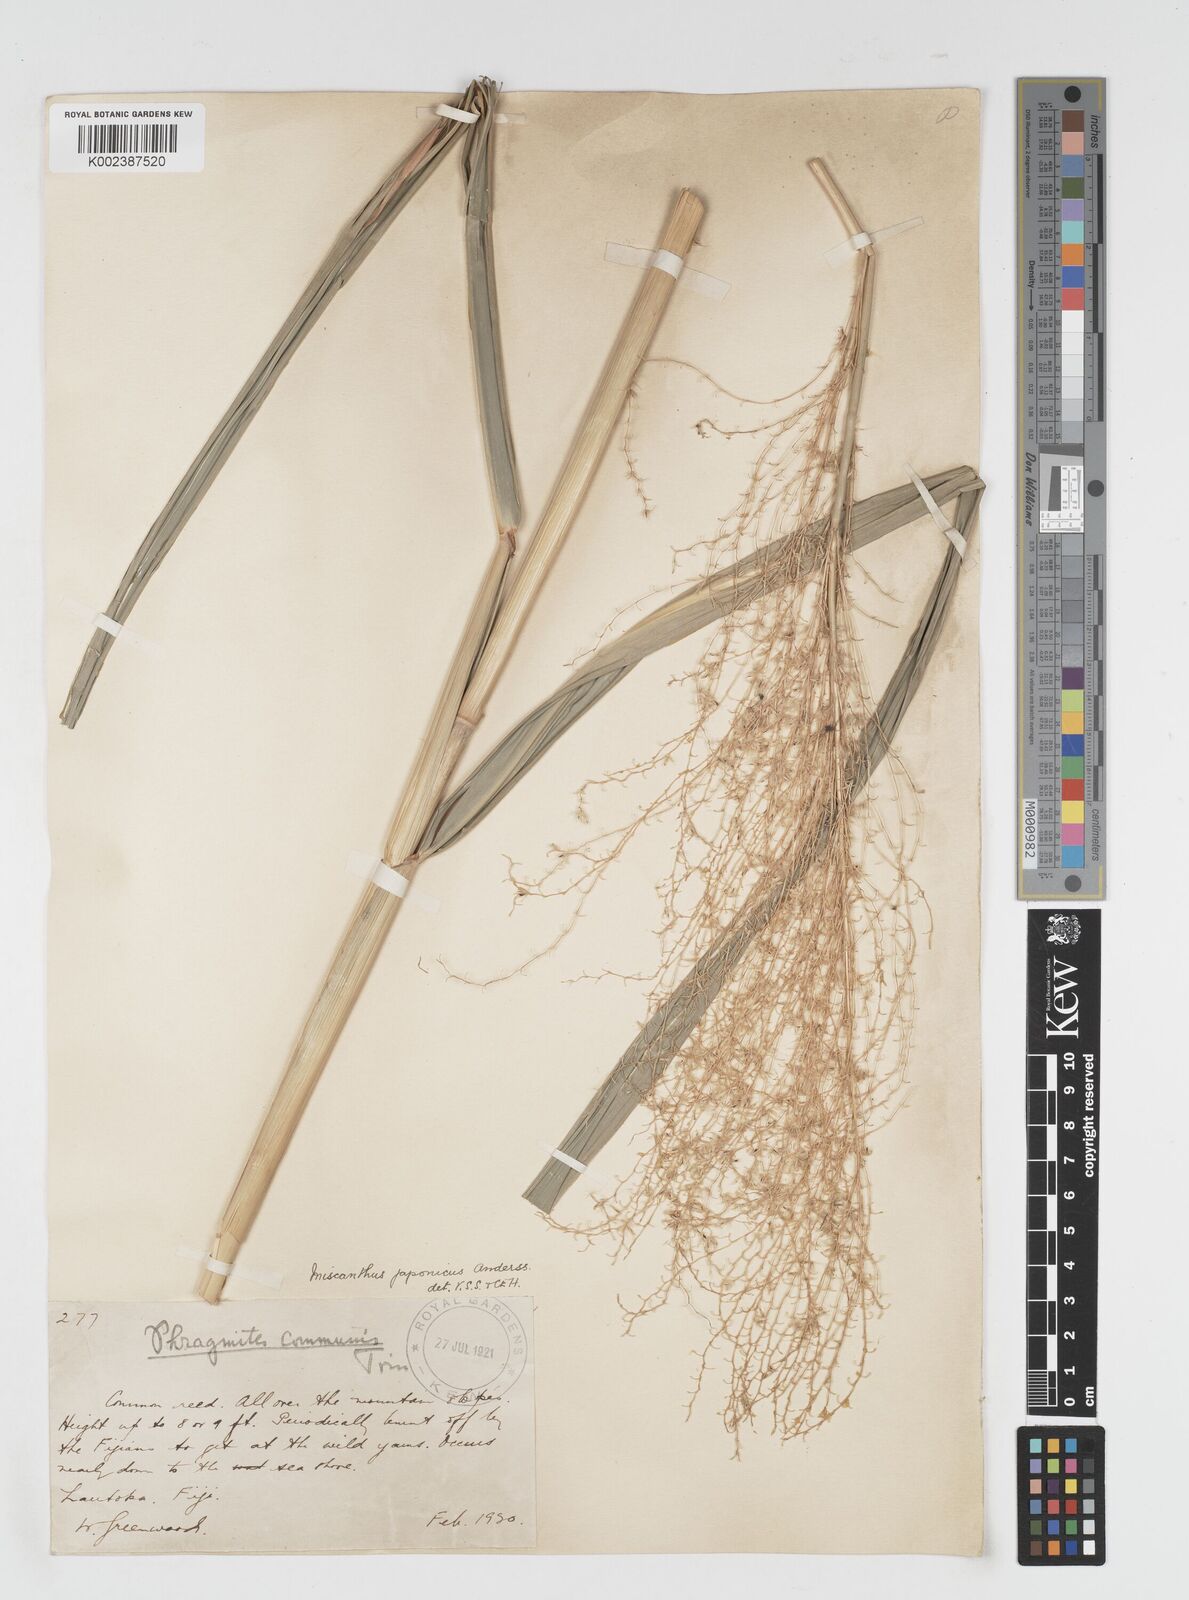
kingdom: Plantae
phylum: Tracheophyta
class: Liliopsida
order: Poales
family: Poaceae
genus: Miscanthus
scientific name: Miscanthus floridulus
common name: Pacific island silvergrass
